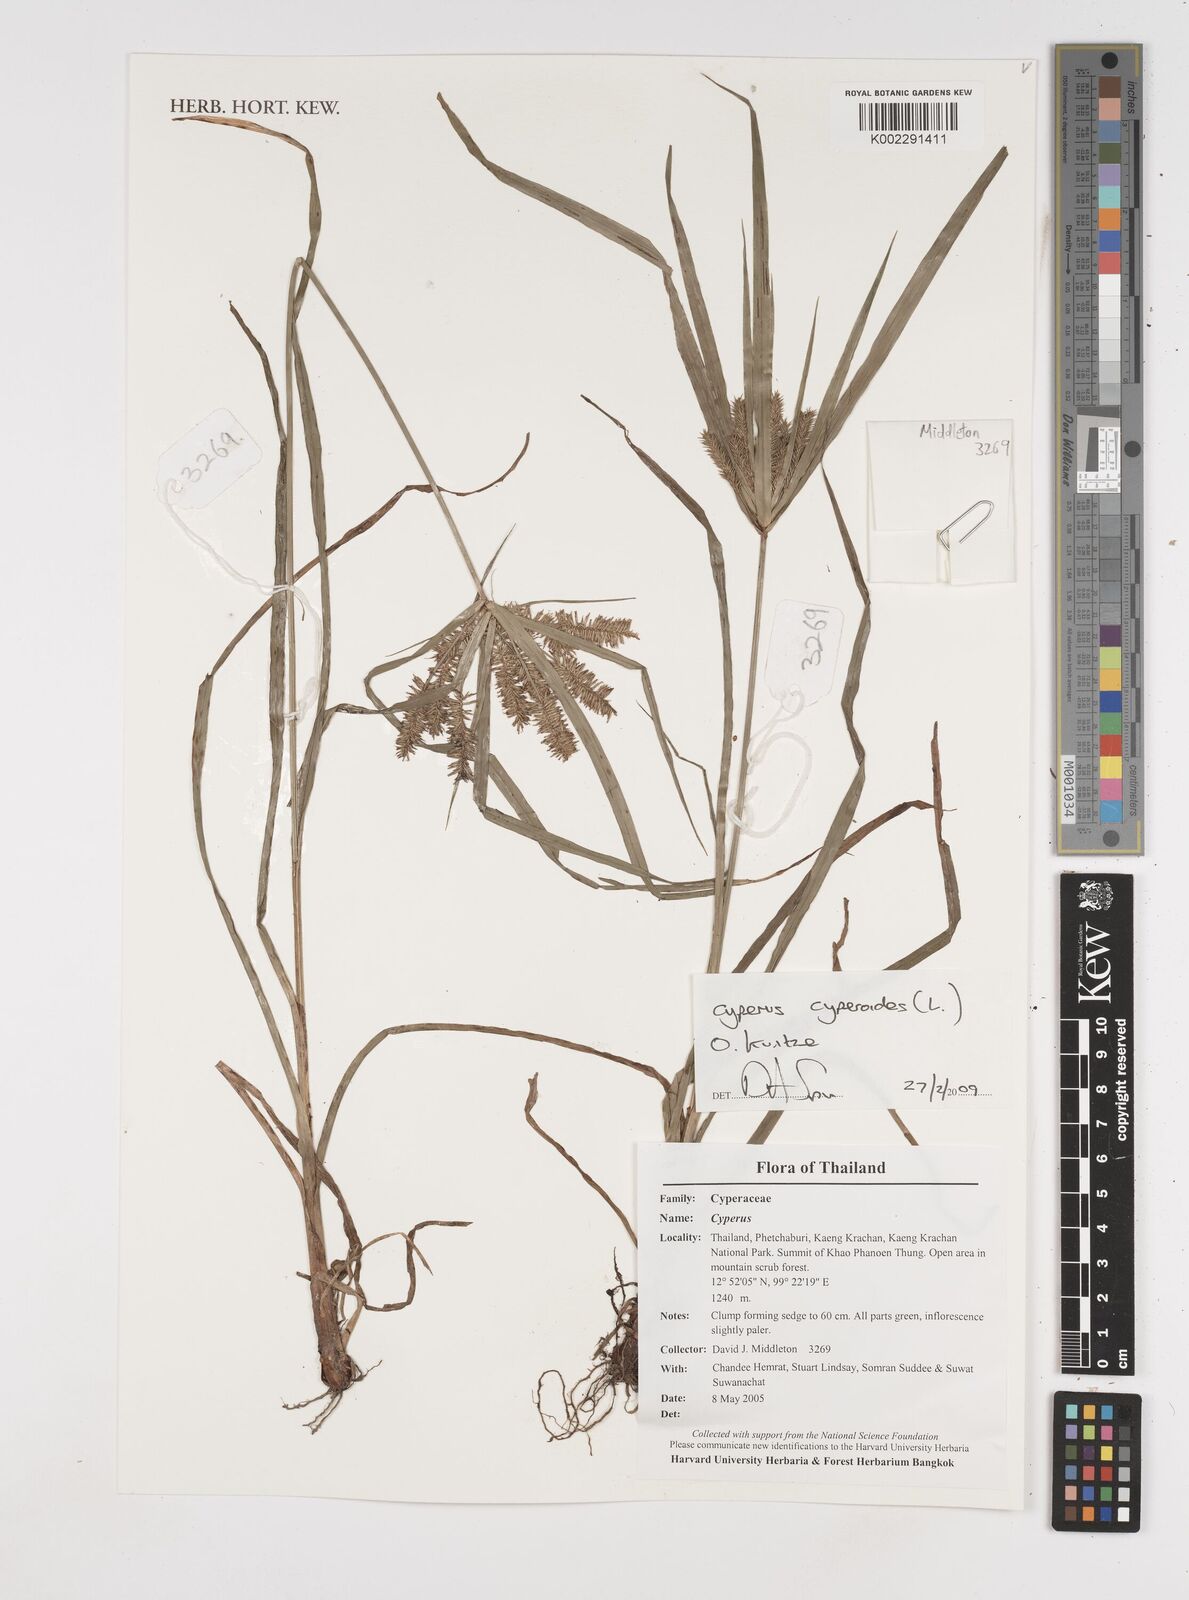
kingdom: Plantae
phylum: Tracheophyta
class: Liliopsida
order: Poales
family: Cyperaceae
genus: Cyperus
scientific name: Cyperus cyperoides
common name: Pacific island flat sedge
